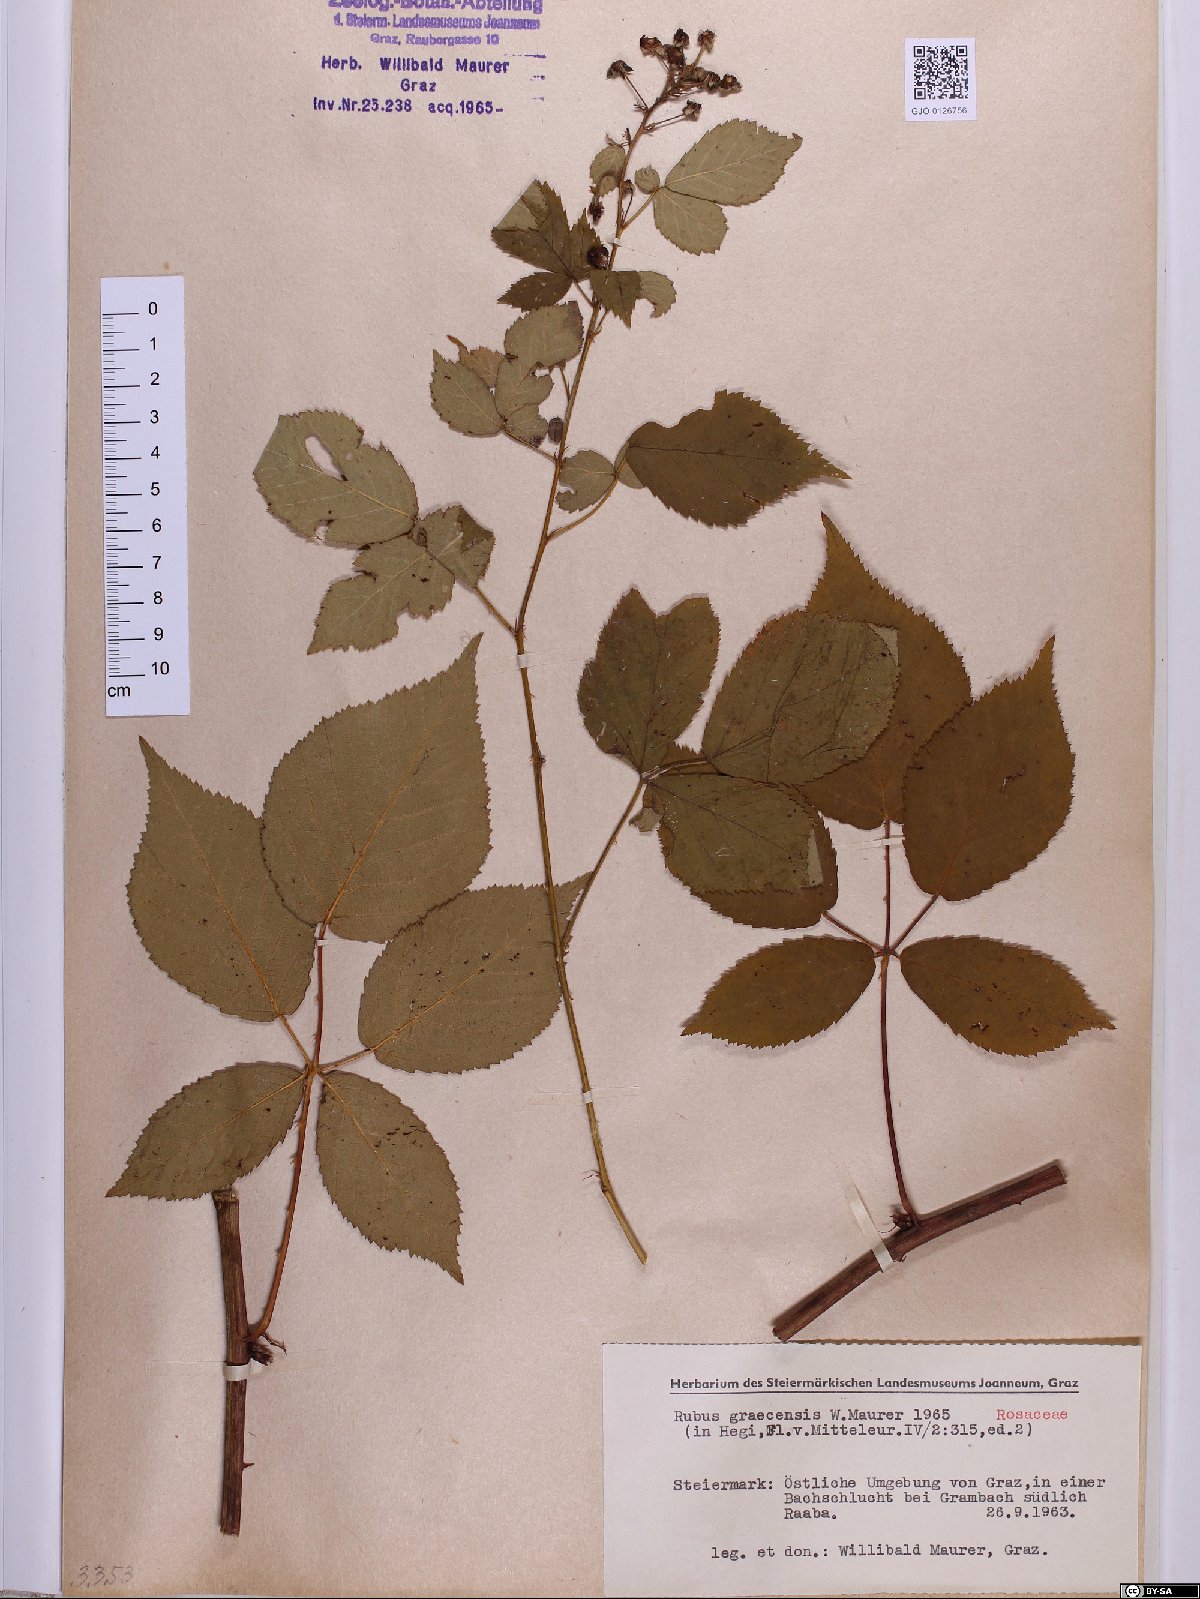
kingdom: Plantae
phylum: Tracheophyta
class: Magnoliopsida
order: Rosales
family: Rosaceae
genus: Rubus
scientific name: Rubus graecensis
